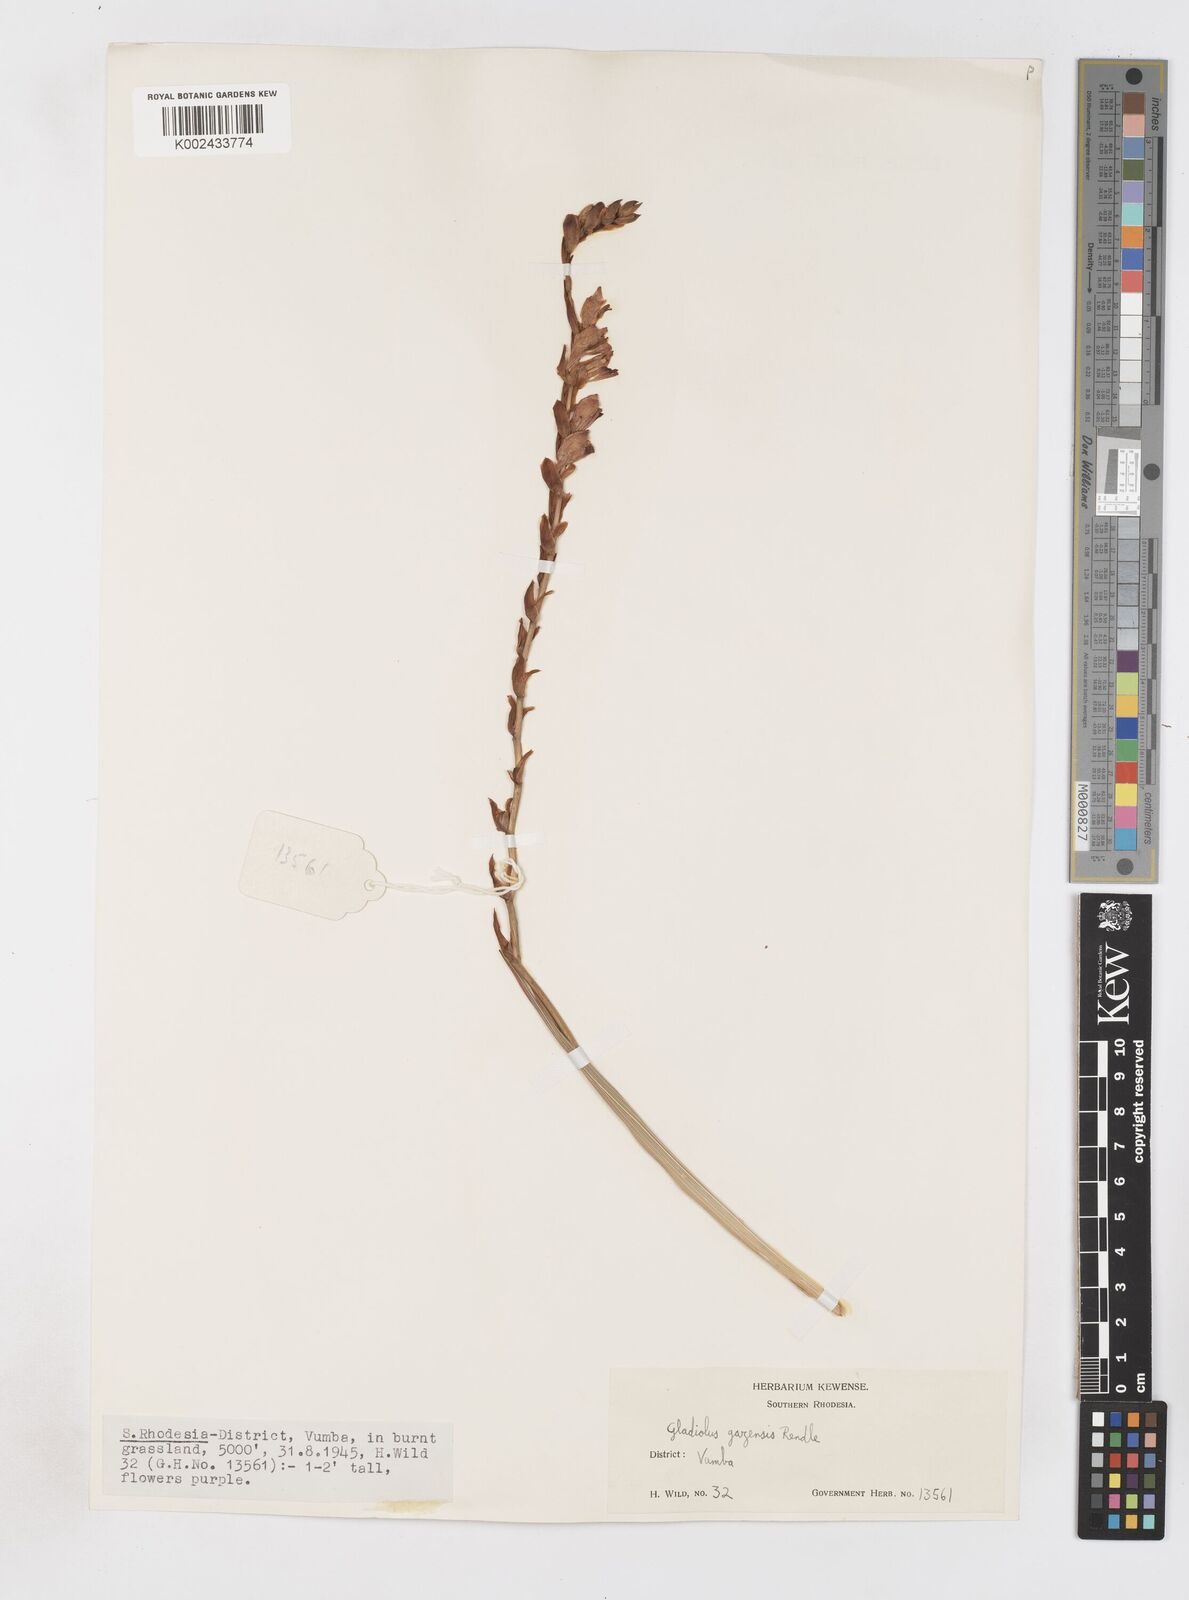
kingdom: Plantae
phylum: Tracheophyta
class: Liliopsida
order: Asparagales
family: Iridaceae
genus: Gladiolus
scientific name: Gladiolus crassifolius
